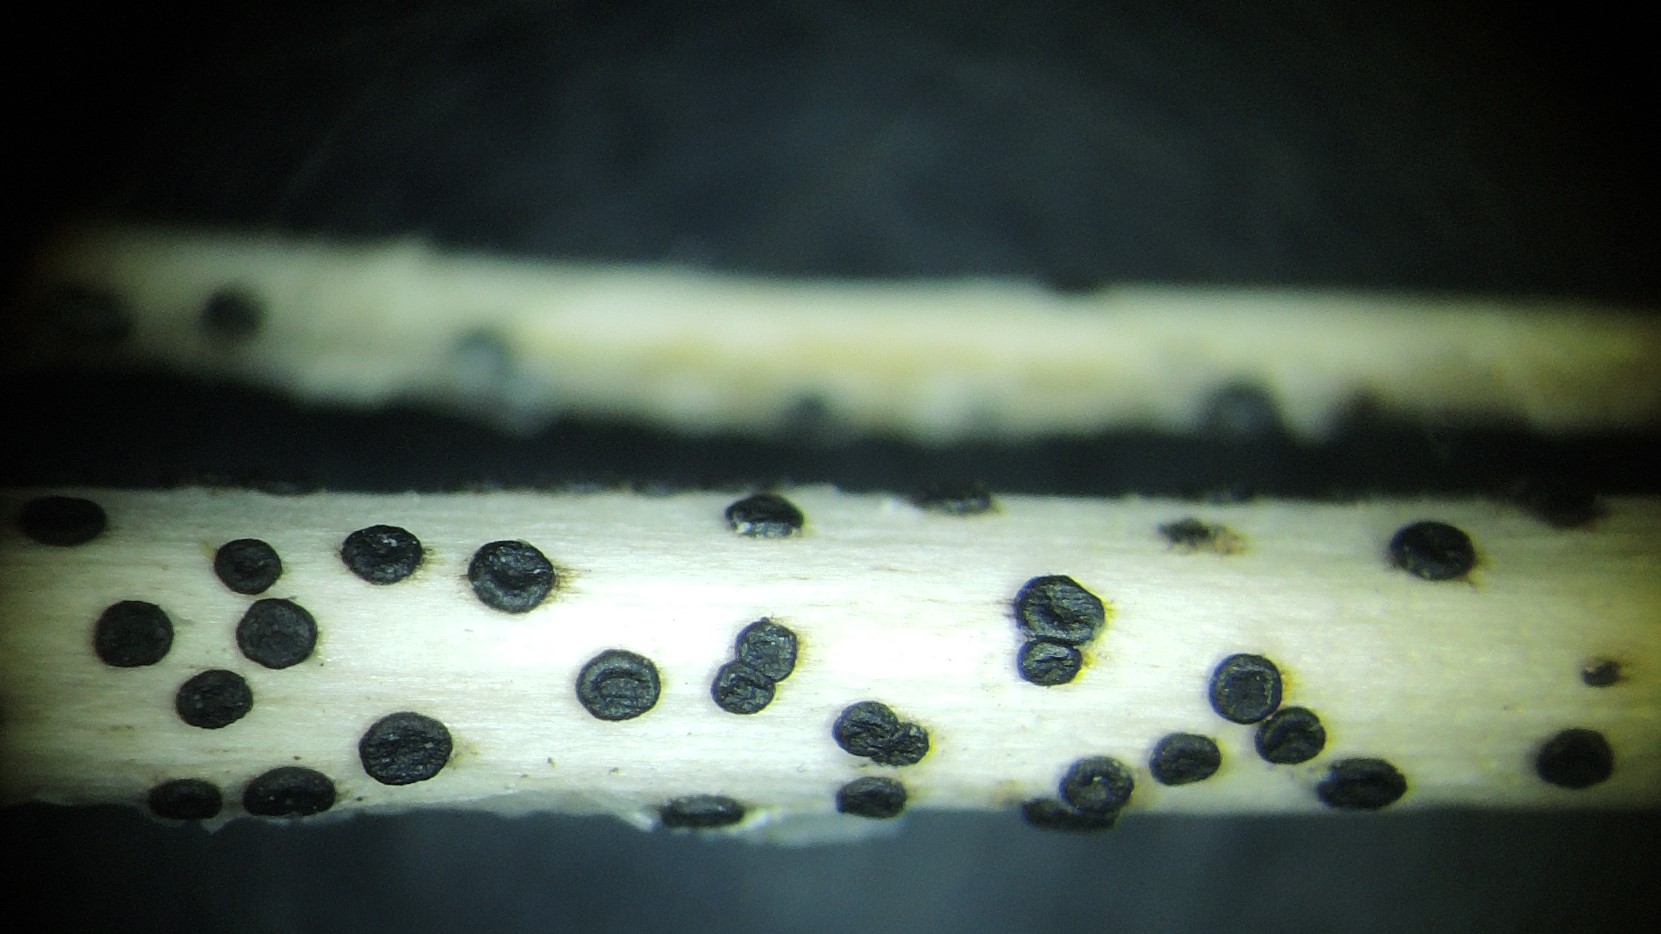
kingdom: Fungi
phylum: Ascomycota
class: Dothideomycetes
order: Pleosporales
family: Didymellaceae
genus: Phoma
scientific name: Phoma
